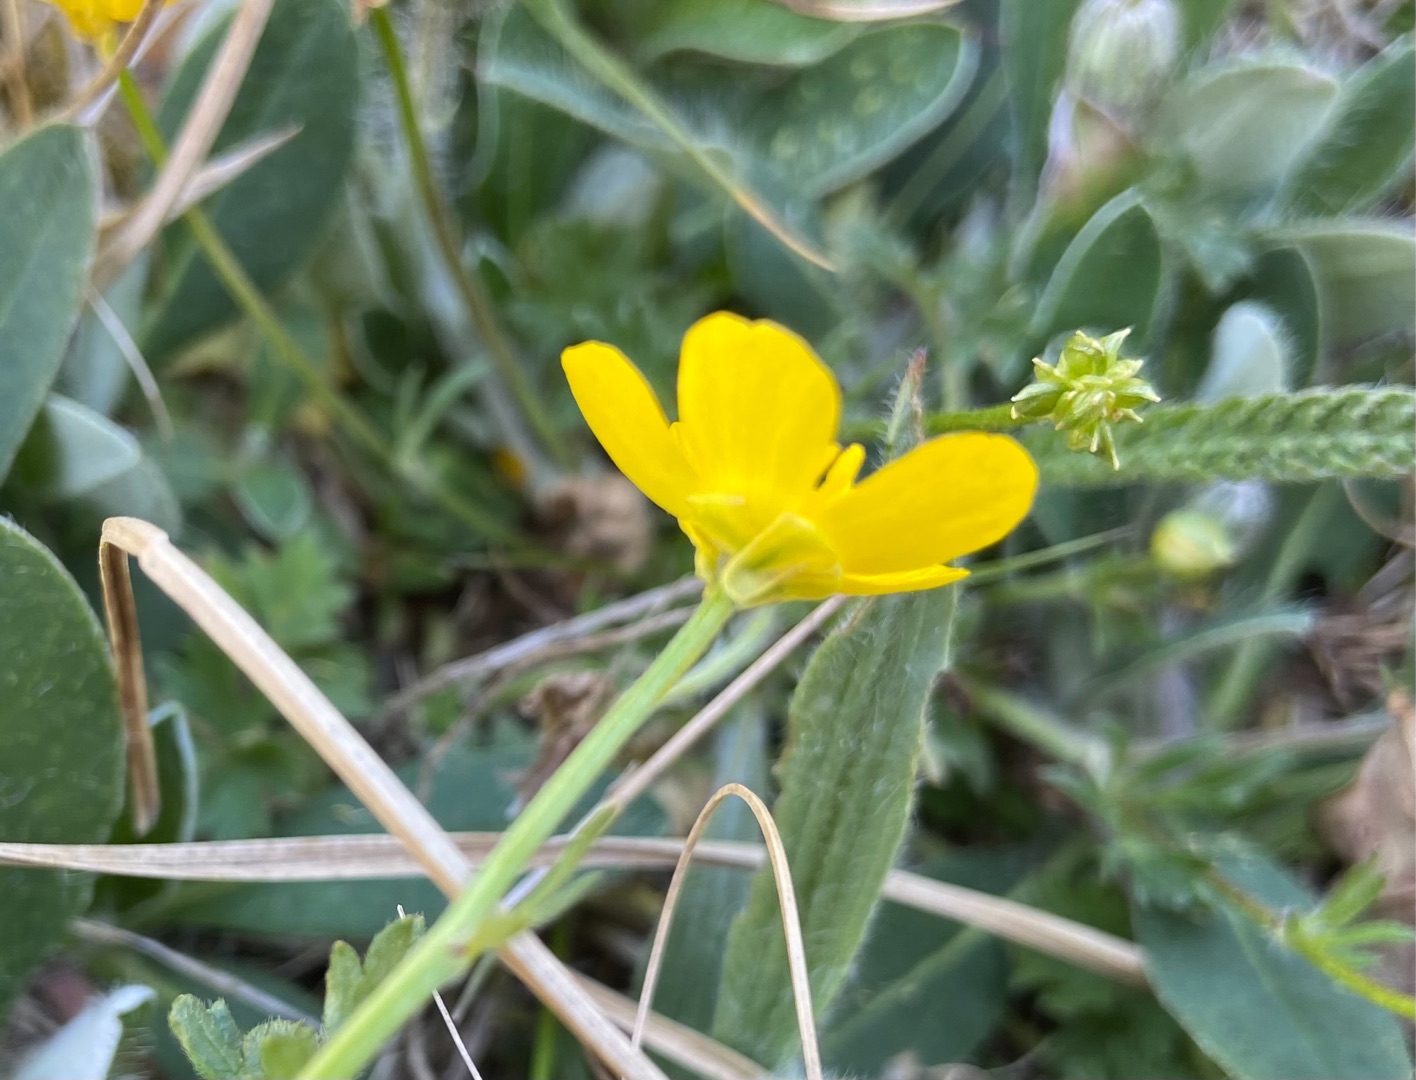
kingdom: Plantae
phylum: Tracheophyta
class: Magnoliopsida
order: Ranunculales
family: Ranunculaceae
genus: Ranunculus
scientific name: Ranunculus bulbosus
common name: Knold-ranunkel
